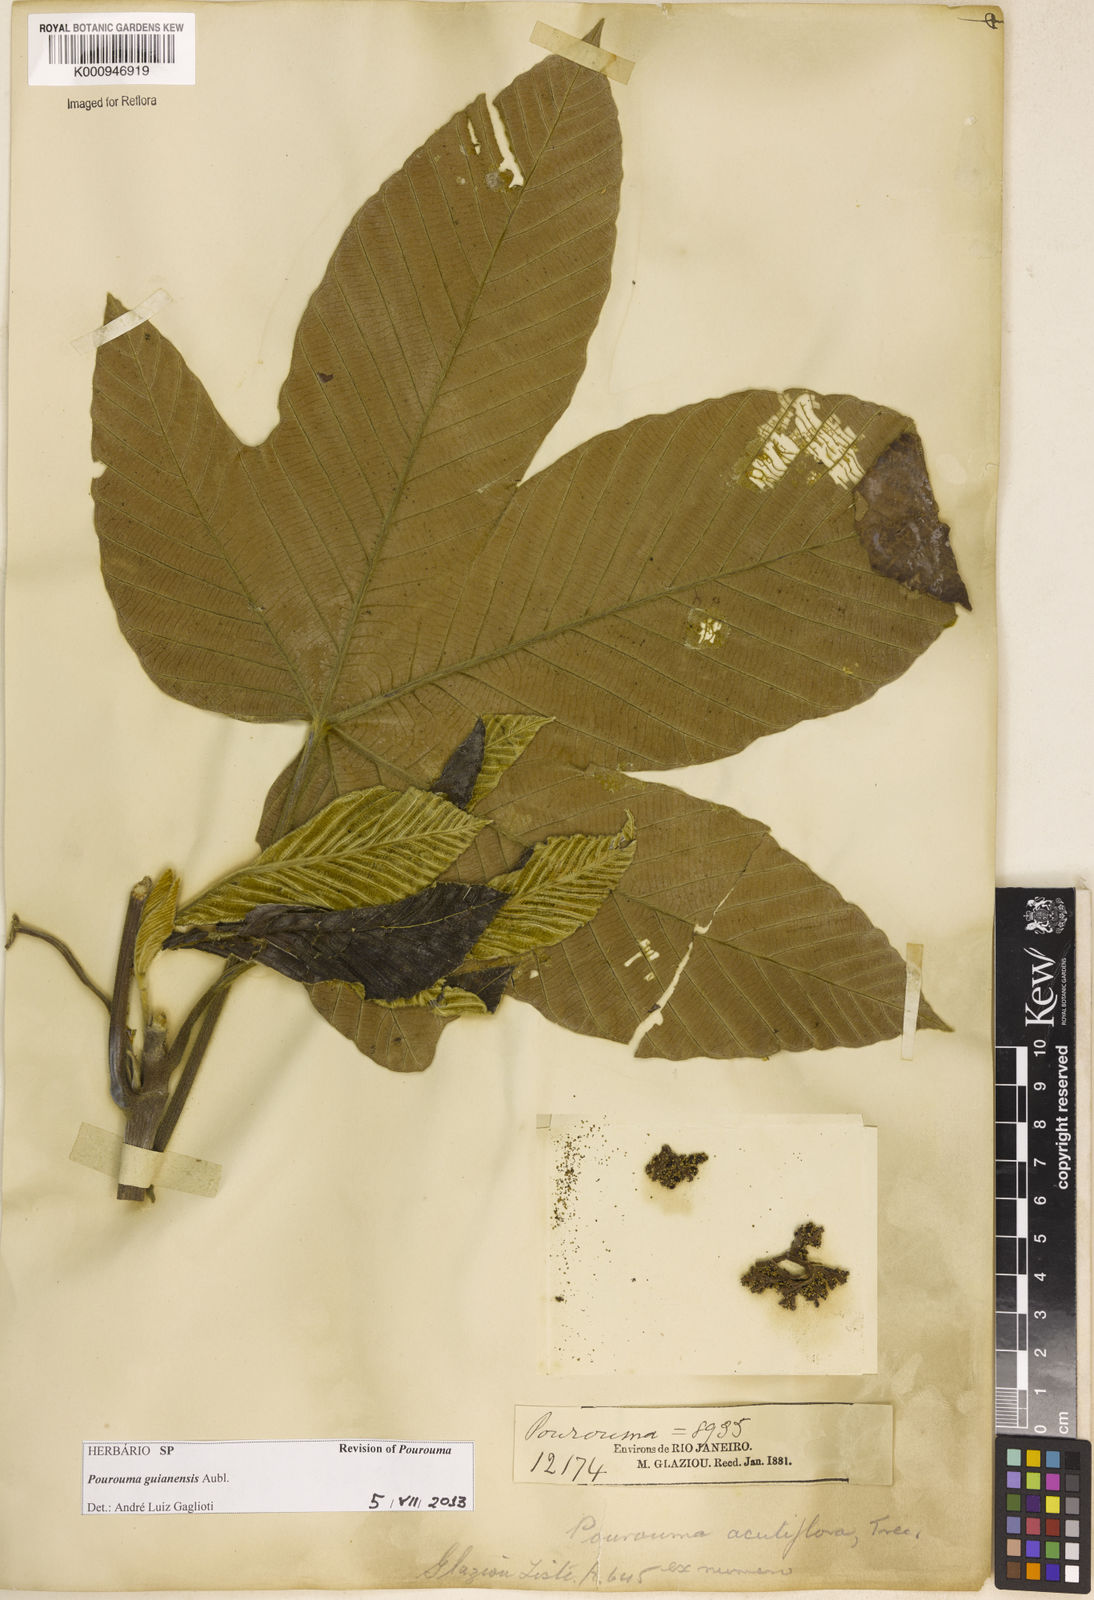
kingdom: Plantae
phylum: Tracheophyta
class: Magnoliopsida
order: Rosales
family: Urticaceae
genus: Pourouma
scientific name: Pourouma guianensis
